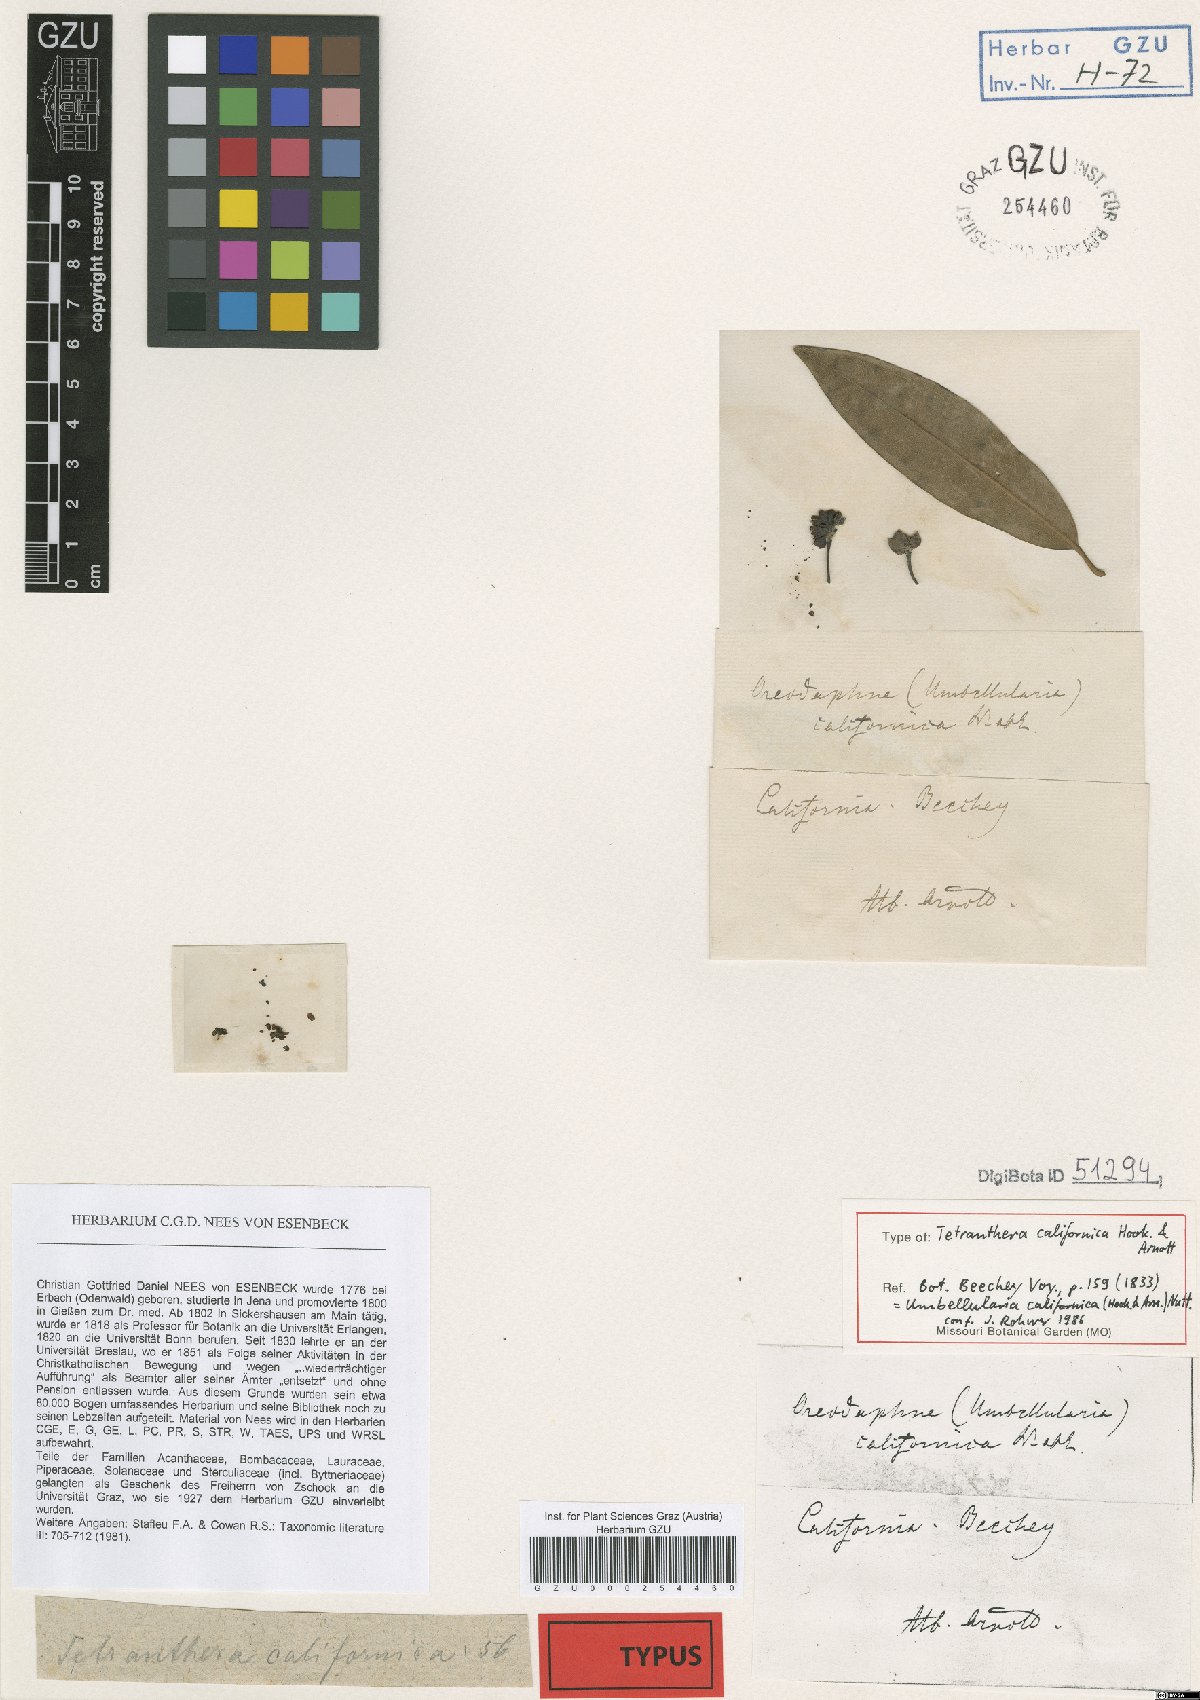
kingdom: Plantae
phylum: Tracheophyta
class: Magnoliopsida
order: Laurales
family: Lauraceae
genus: Umbellularia
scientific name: Umbellularia californica
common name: California bay
